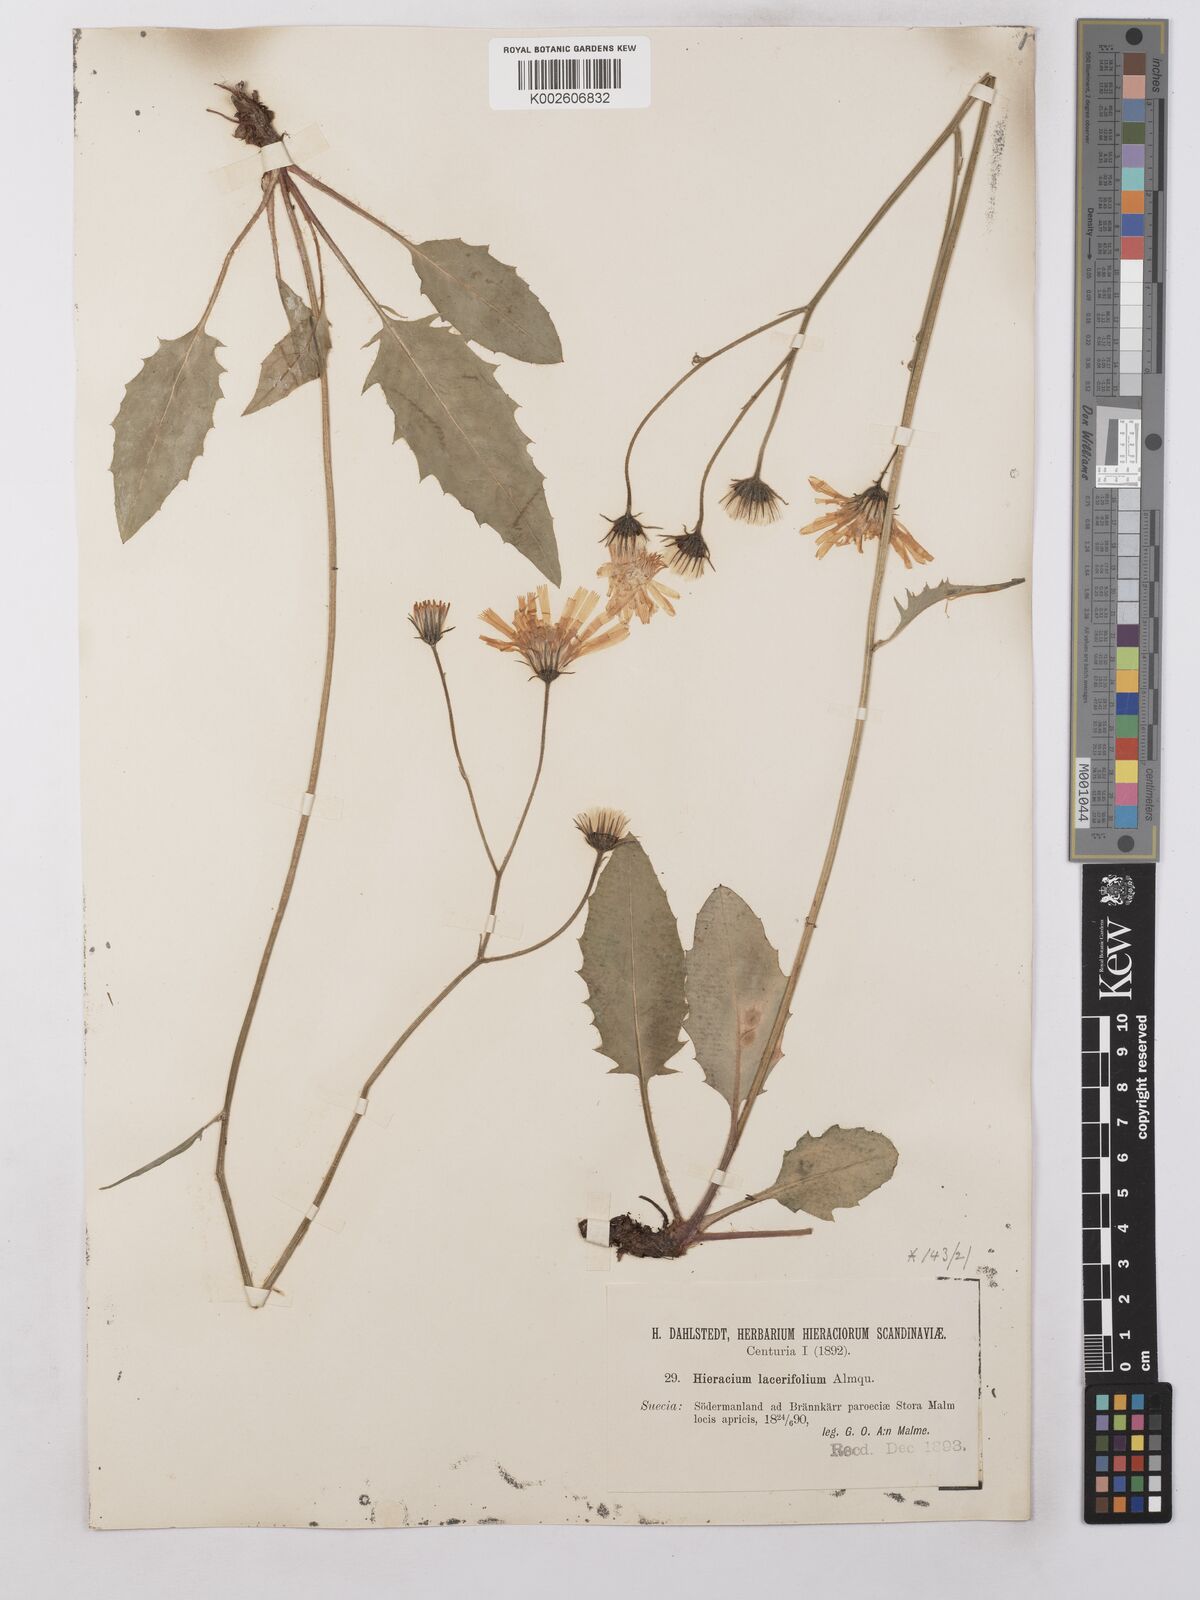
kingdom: Plantae
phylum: Tracheophyta
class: Magnoliopsida
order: Asterales
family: Asteraceae
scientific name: Asteraceae
